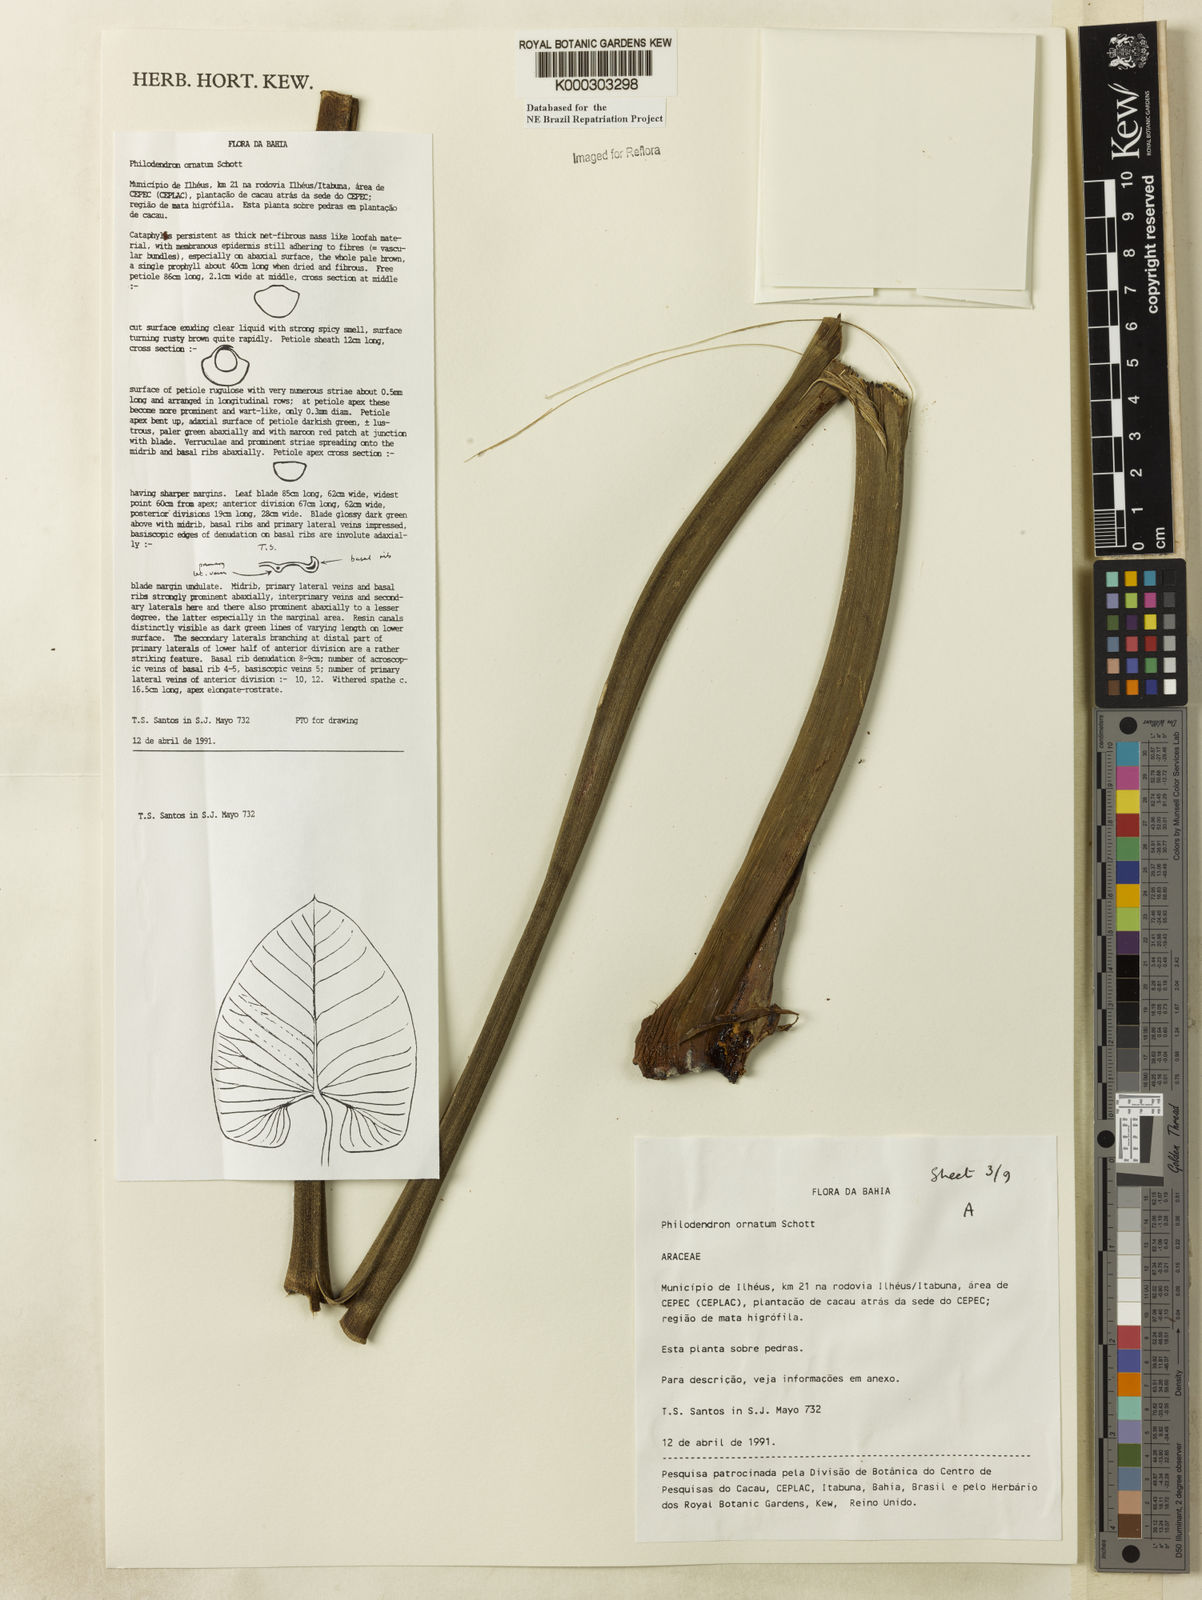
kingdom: Plantae
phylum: Tracheophyta
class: Liliopsida
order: Alismatales
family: Araceae
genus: Philodendron
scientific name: Philodendron ornatum
